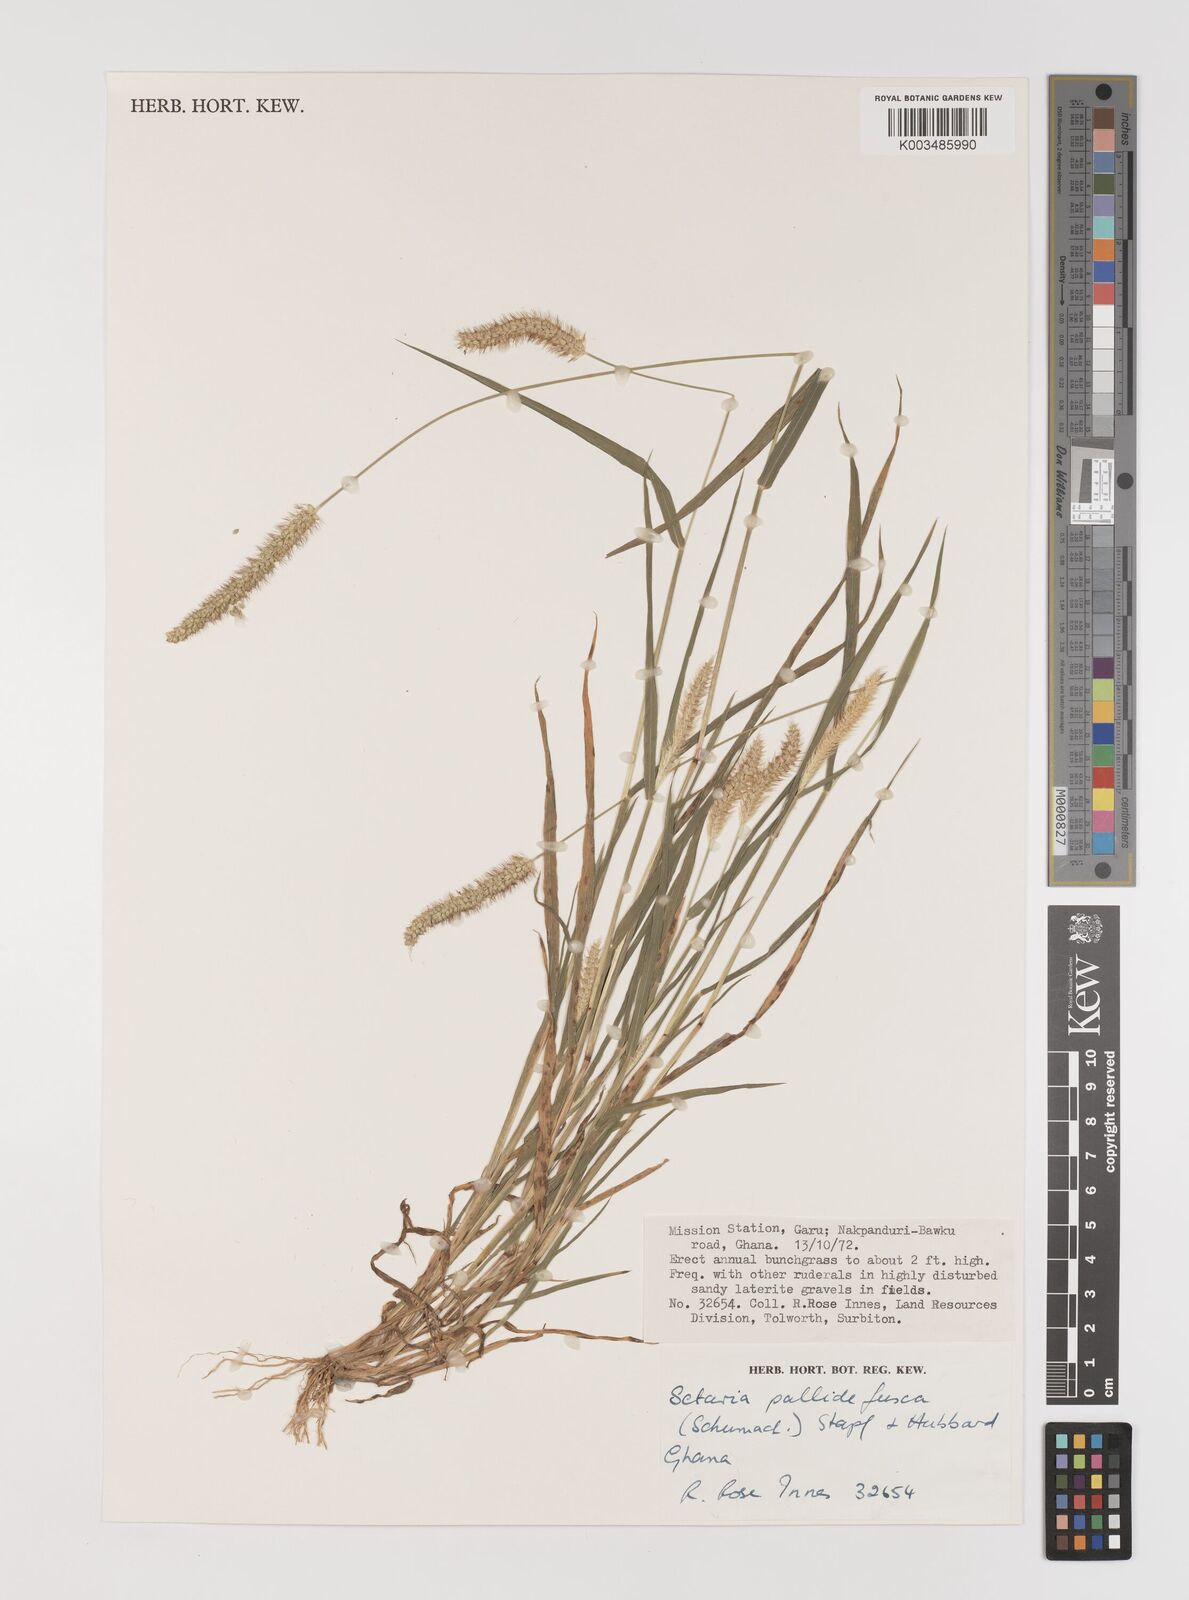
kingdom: Plantae
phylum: Tracheophyta
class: Liliopsida
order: Poales
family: Poaceae
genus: Setaria
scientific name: Setaria pumila
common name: Yellow bristle-grass
